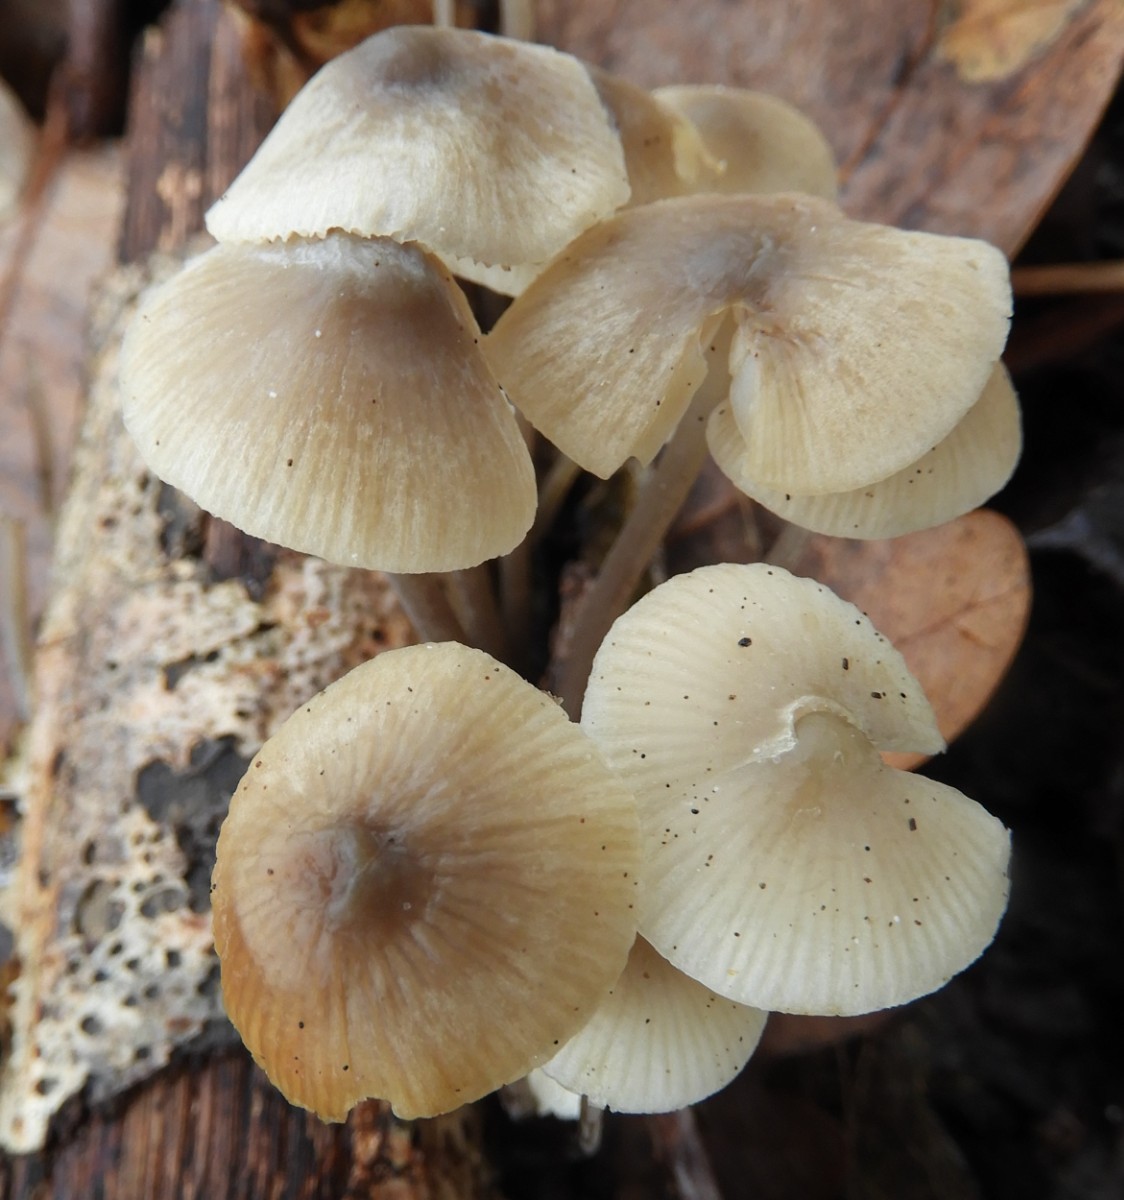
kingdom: Fungi
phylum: Basidiomycota
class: Agaricomycetes
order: Agaricales
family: Mycenaceae
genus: Mycena
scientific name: Mycena arcangeliana
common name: oliven-huesvamp
